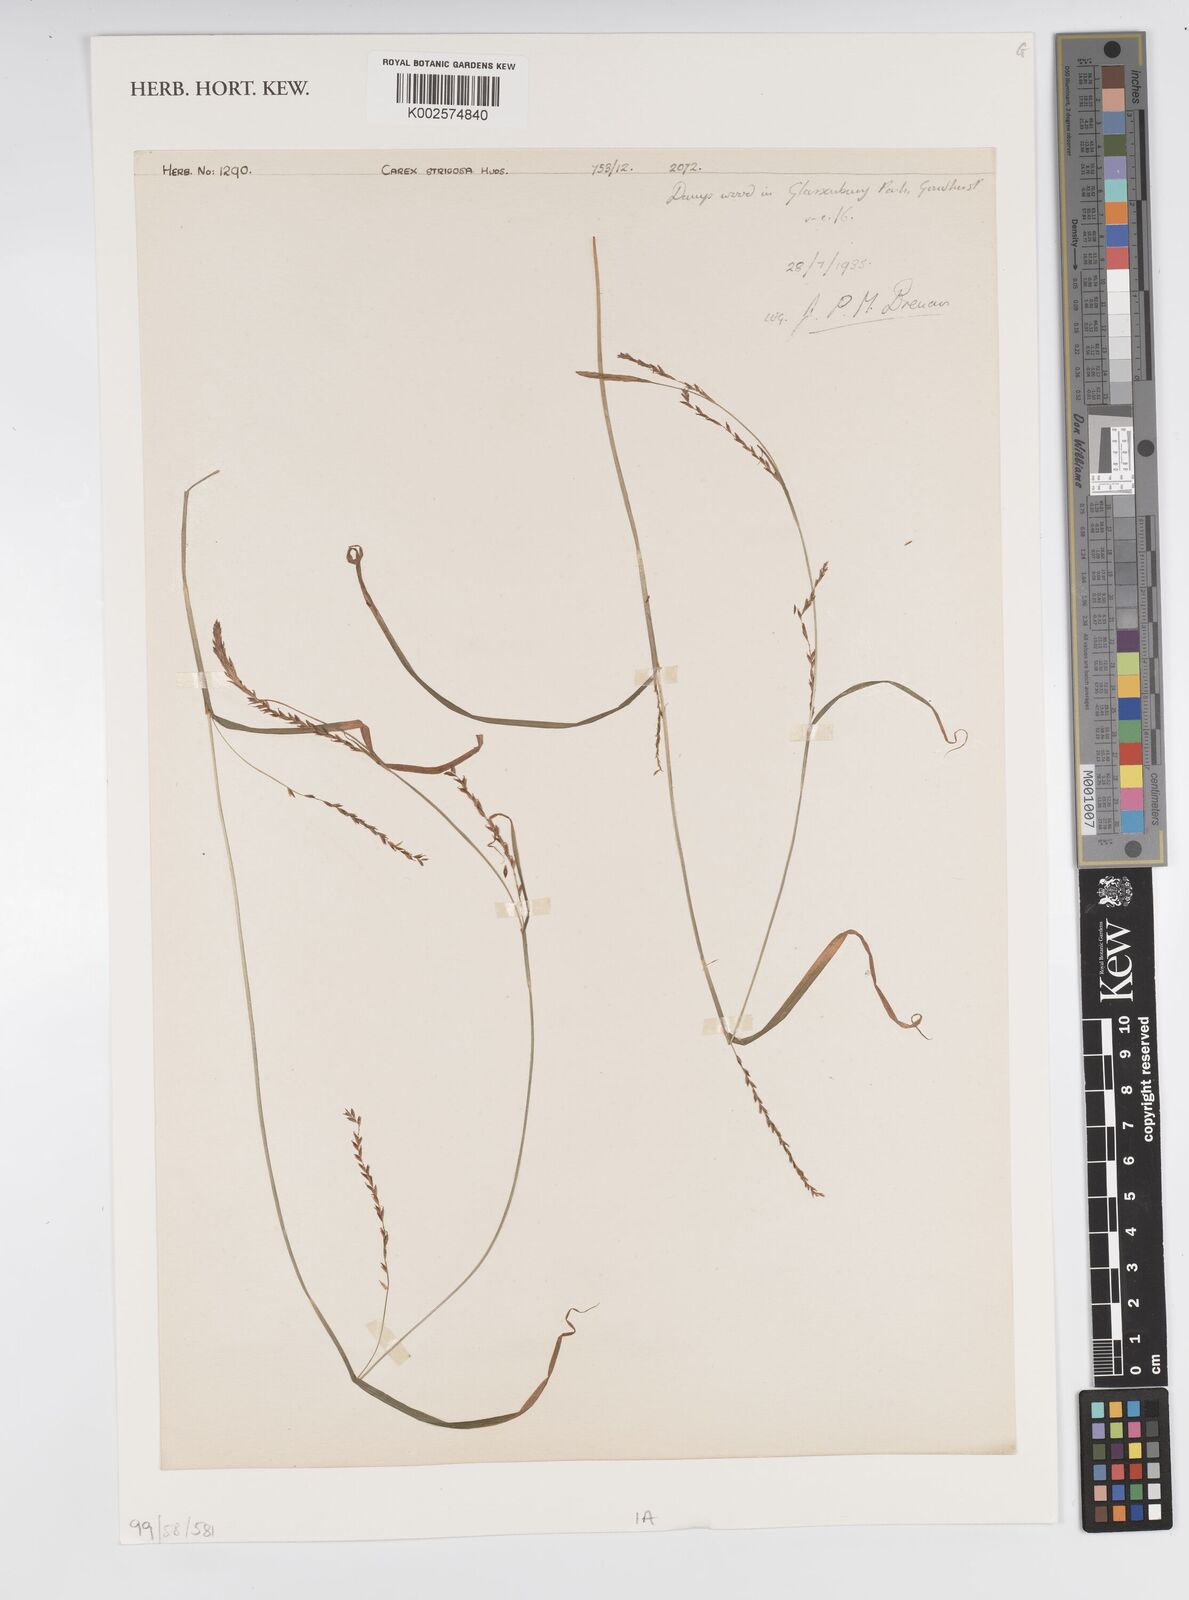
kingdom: Plantae
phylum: Tracheophyta
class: Liliopsida
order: Poales
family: Cyperaceae
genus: Carex
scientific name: Carex strigosa
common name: Thin-spiked wood-sedge
